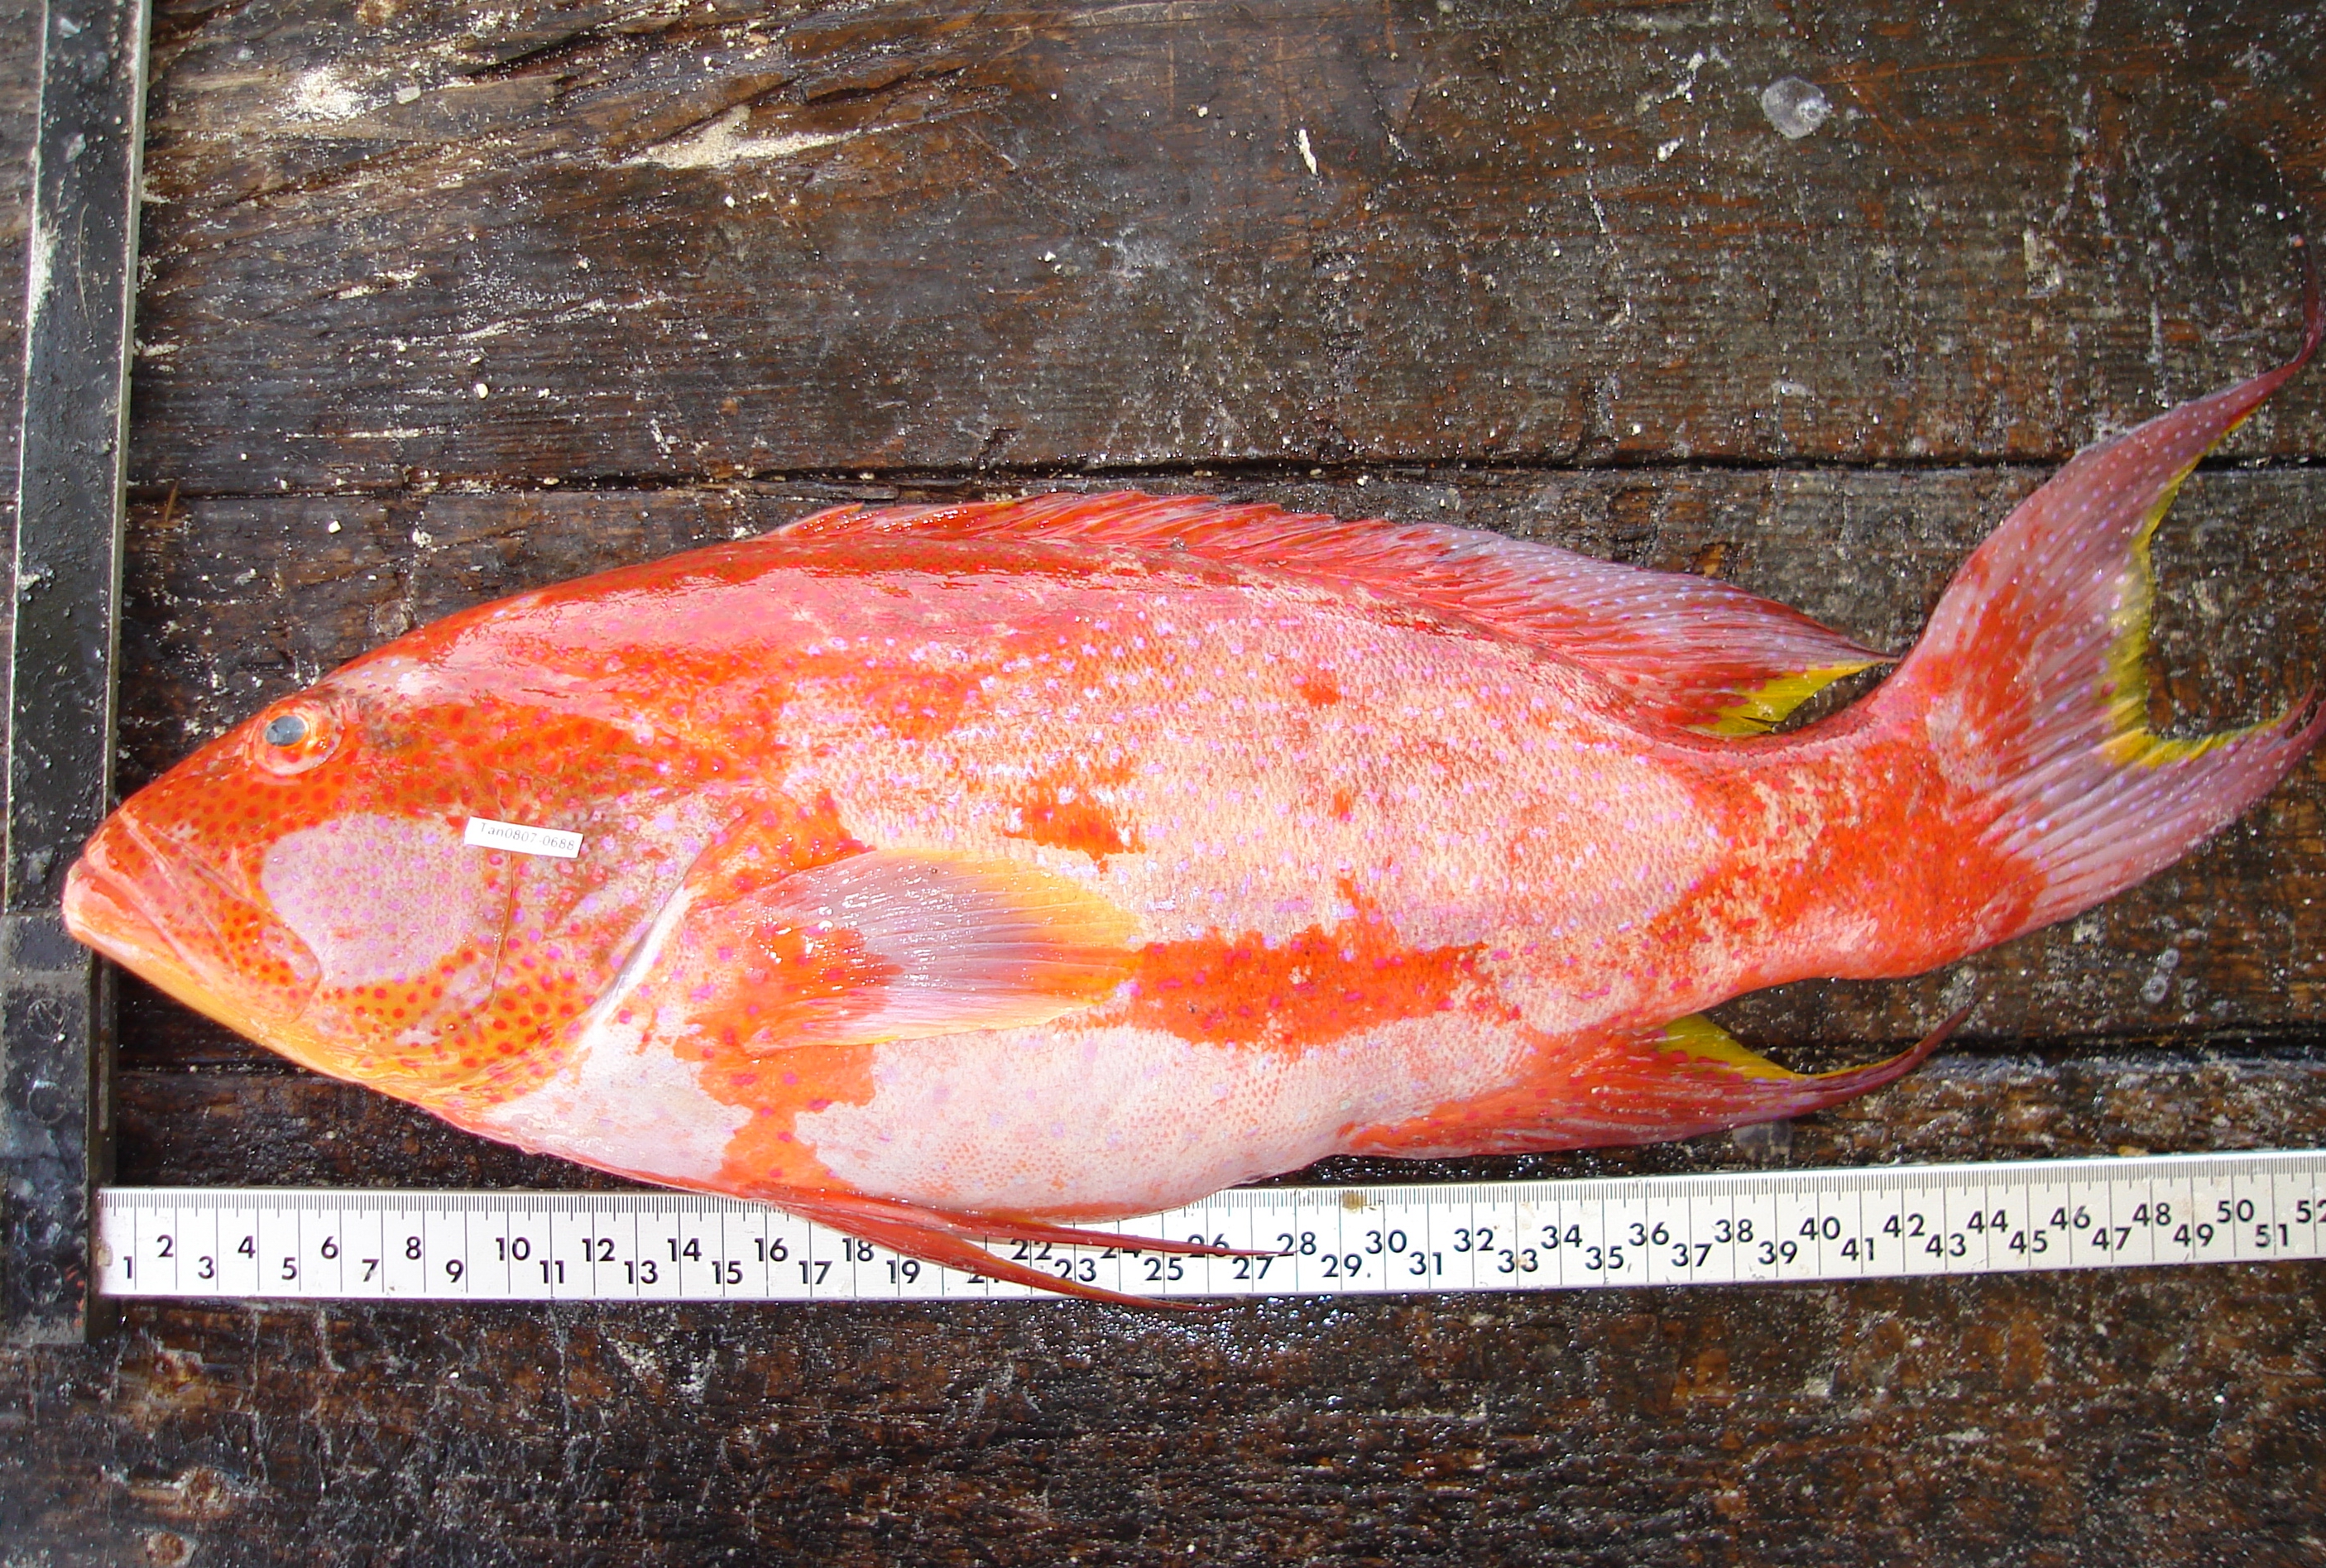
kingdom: Animalia
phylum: Chordata
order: Perciformes
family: Serranidae
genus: Variola
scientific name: Variola louti
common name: Yellow-edged lyretail
